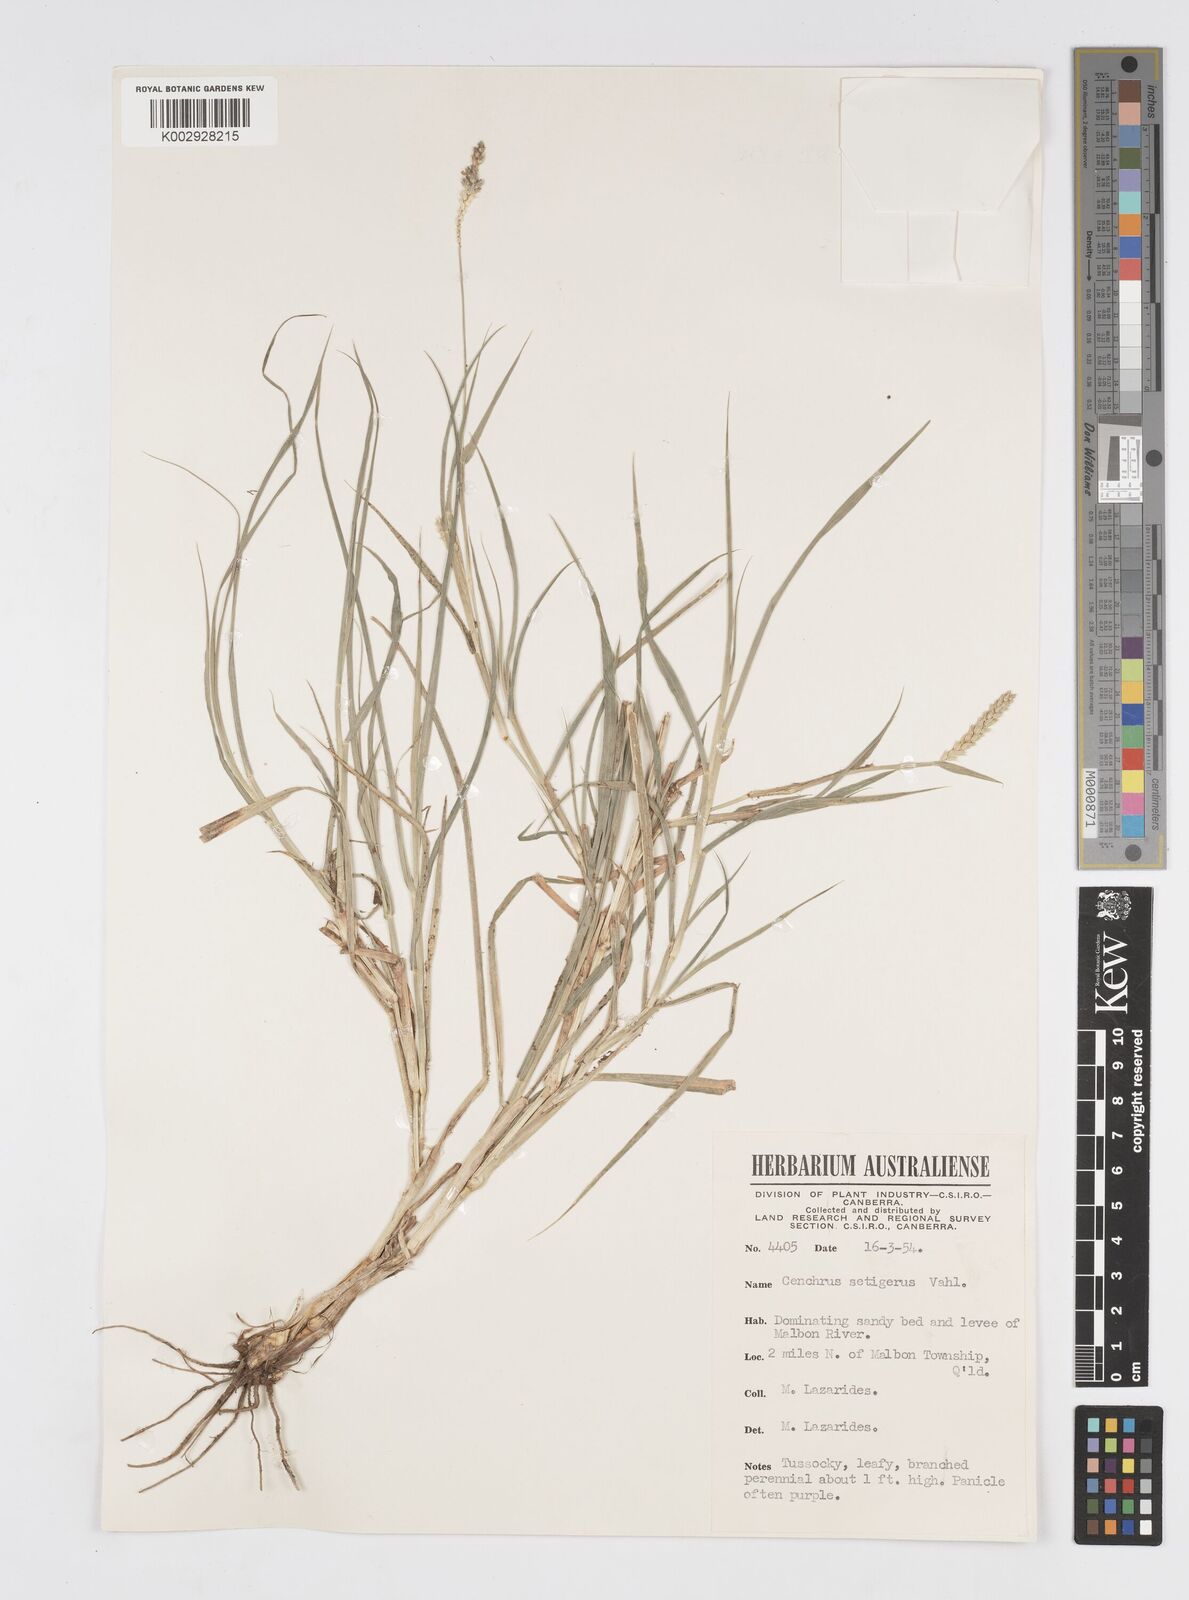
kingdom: Plantae
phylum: Tracheophyta
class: Liliopsida
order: Poales
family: Poaceae
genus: Cenchrus
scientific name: Cenchrus setigerus
